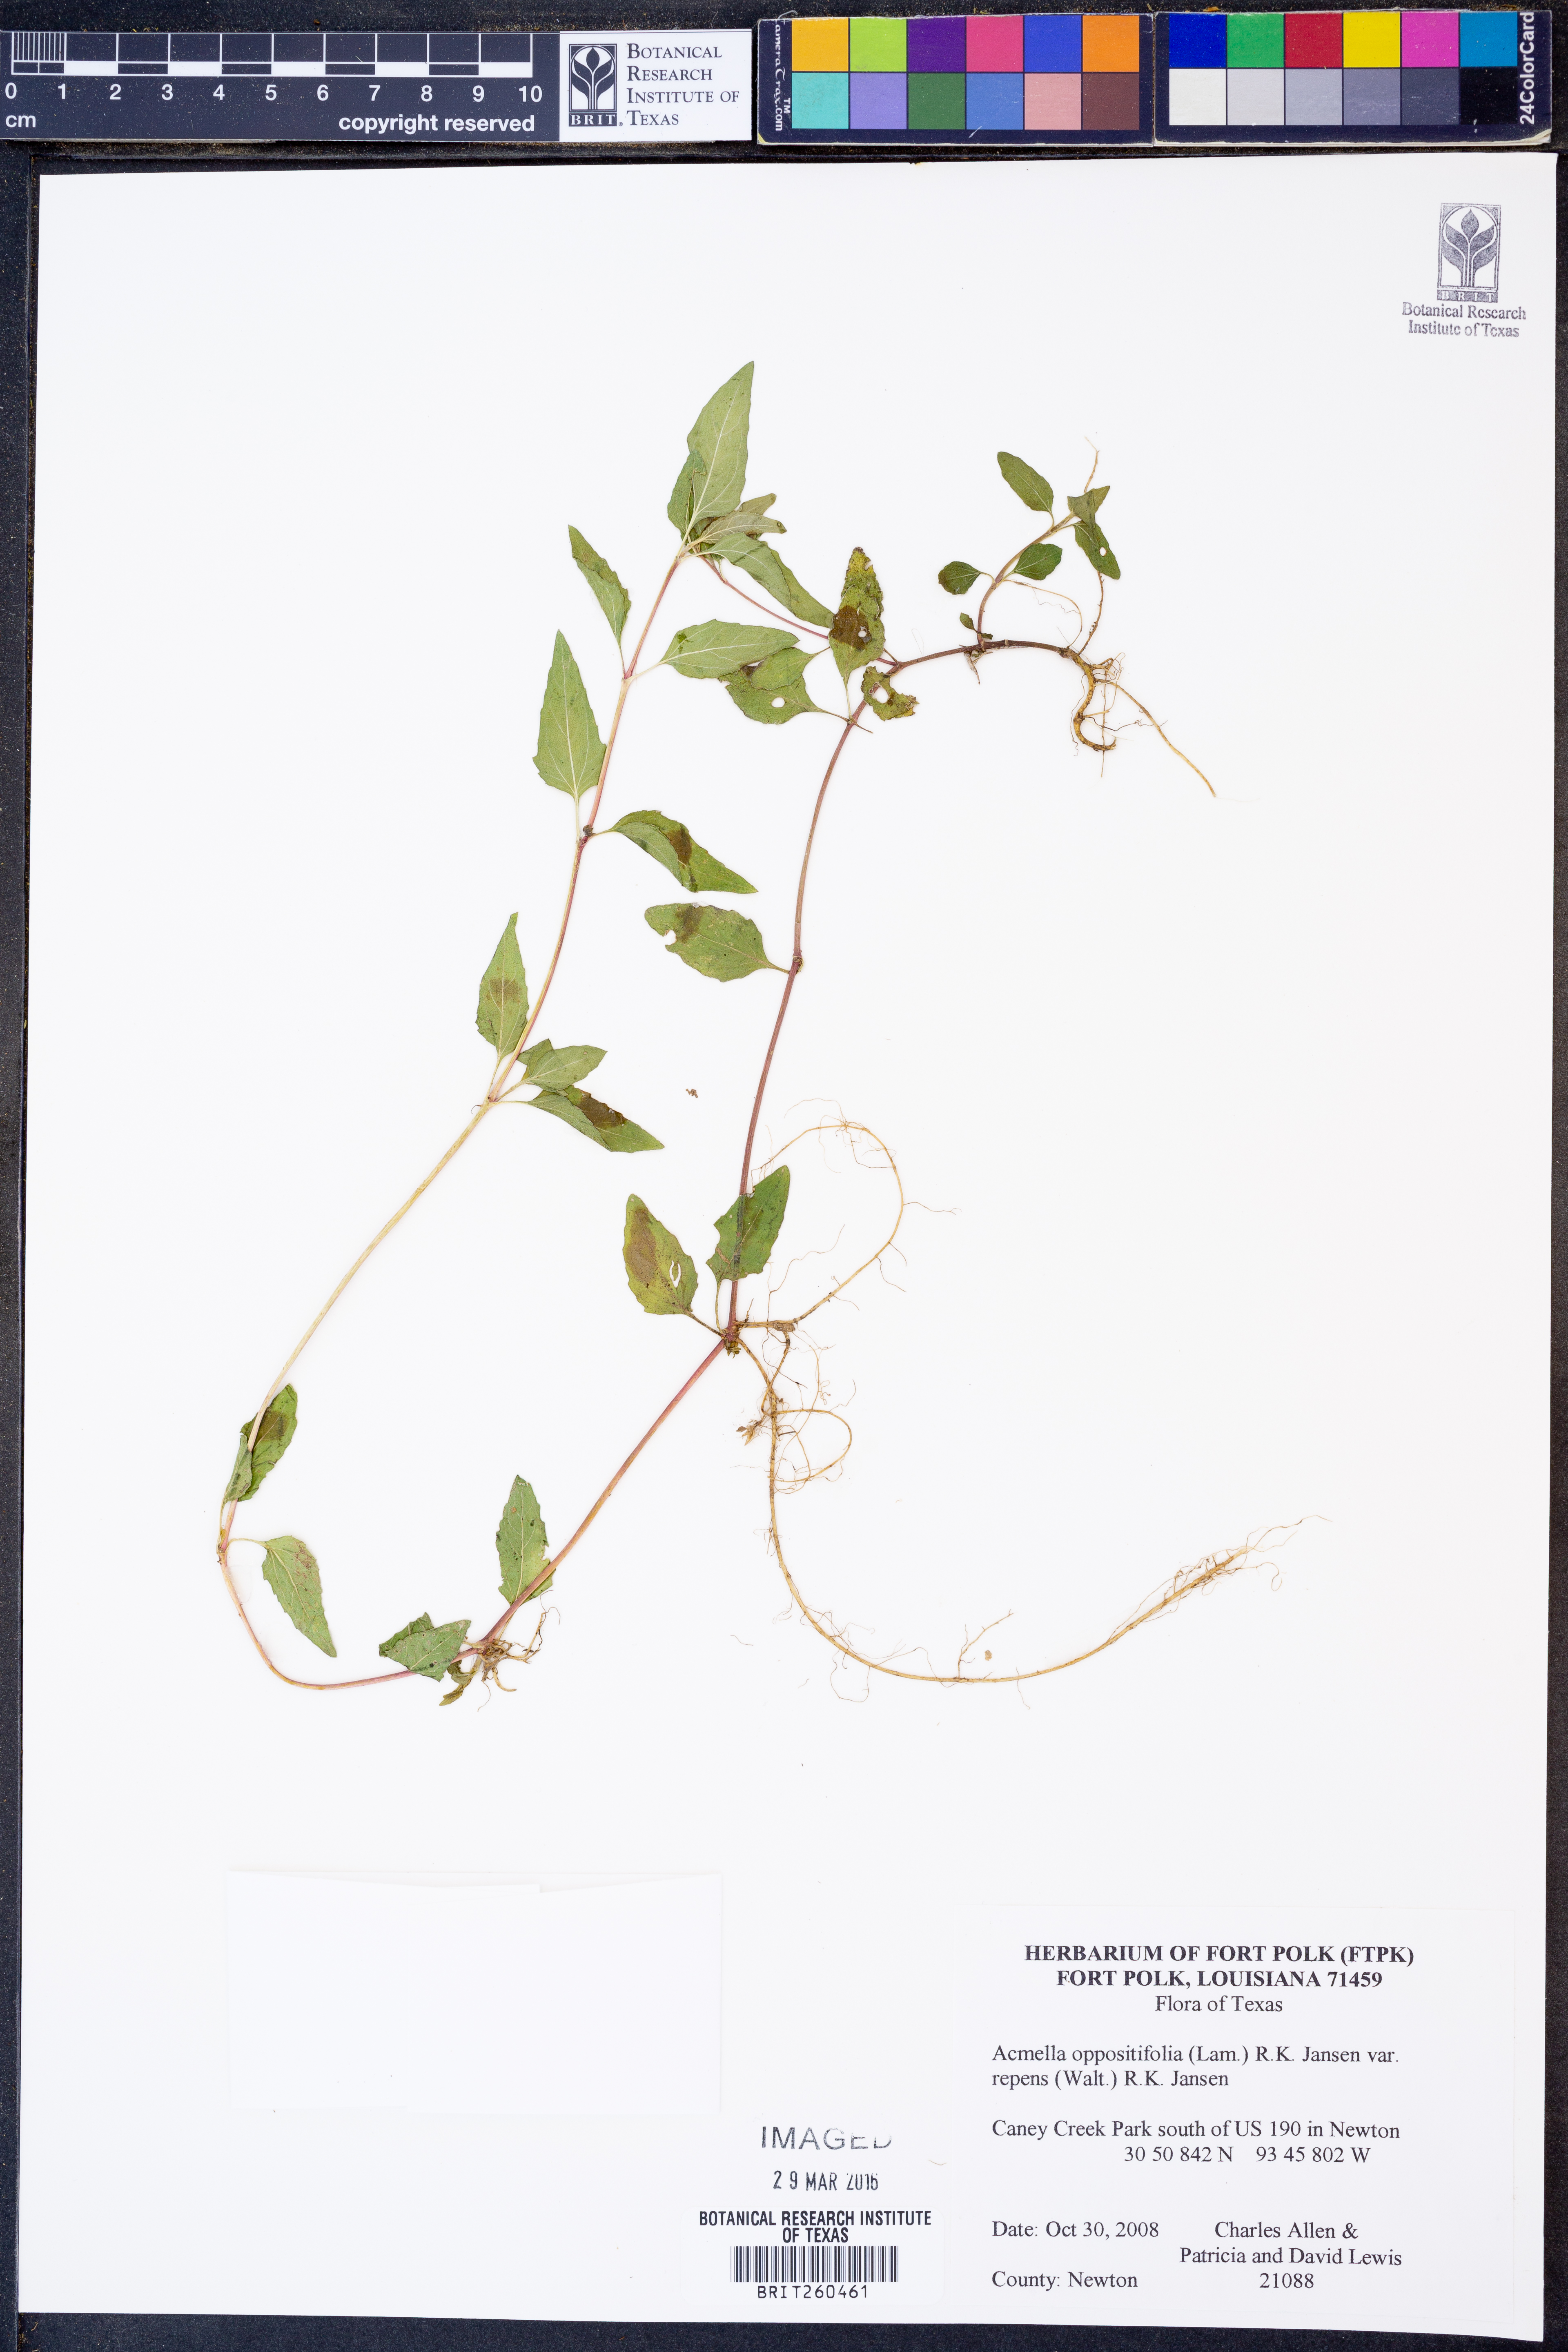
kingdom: Plantae
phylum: Tracheophyta
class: Magnoliopsida
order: Asterales
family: Asteraceae
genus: Acmella
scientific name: Acmella repens
